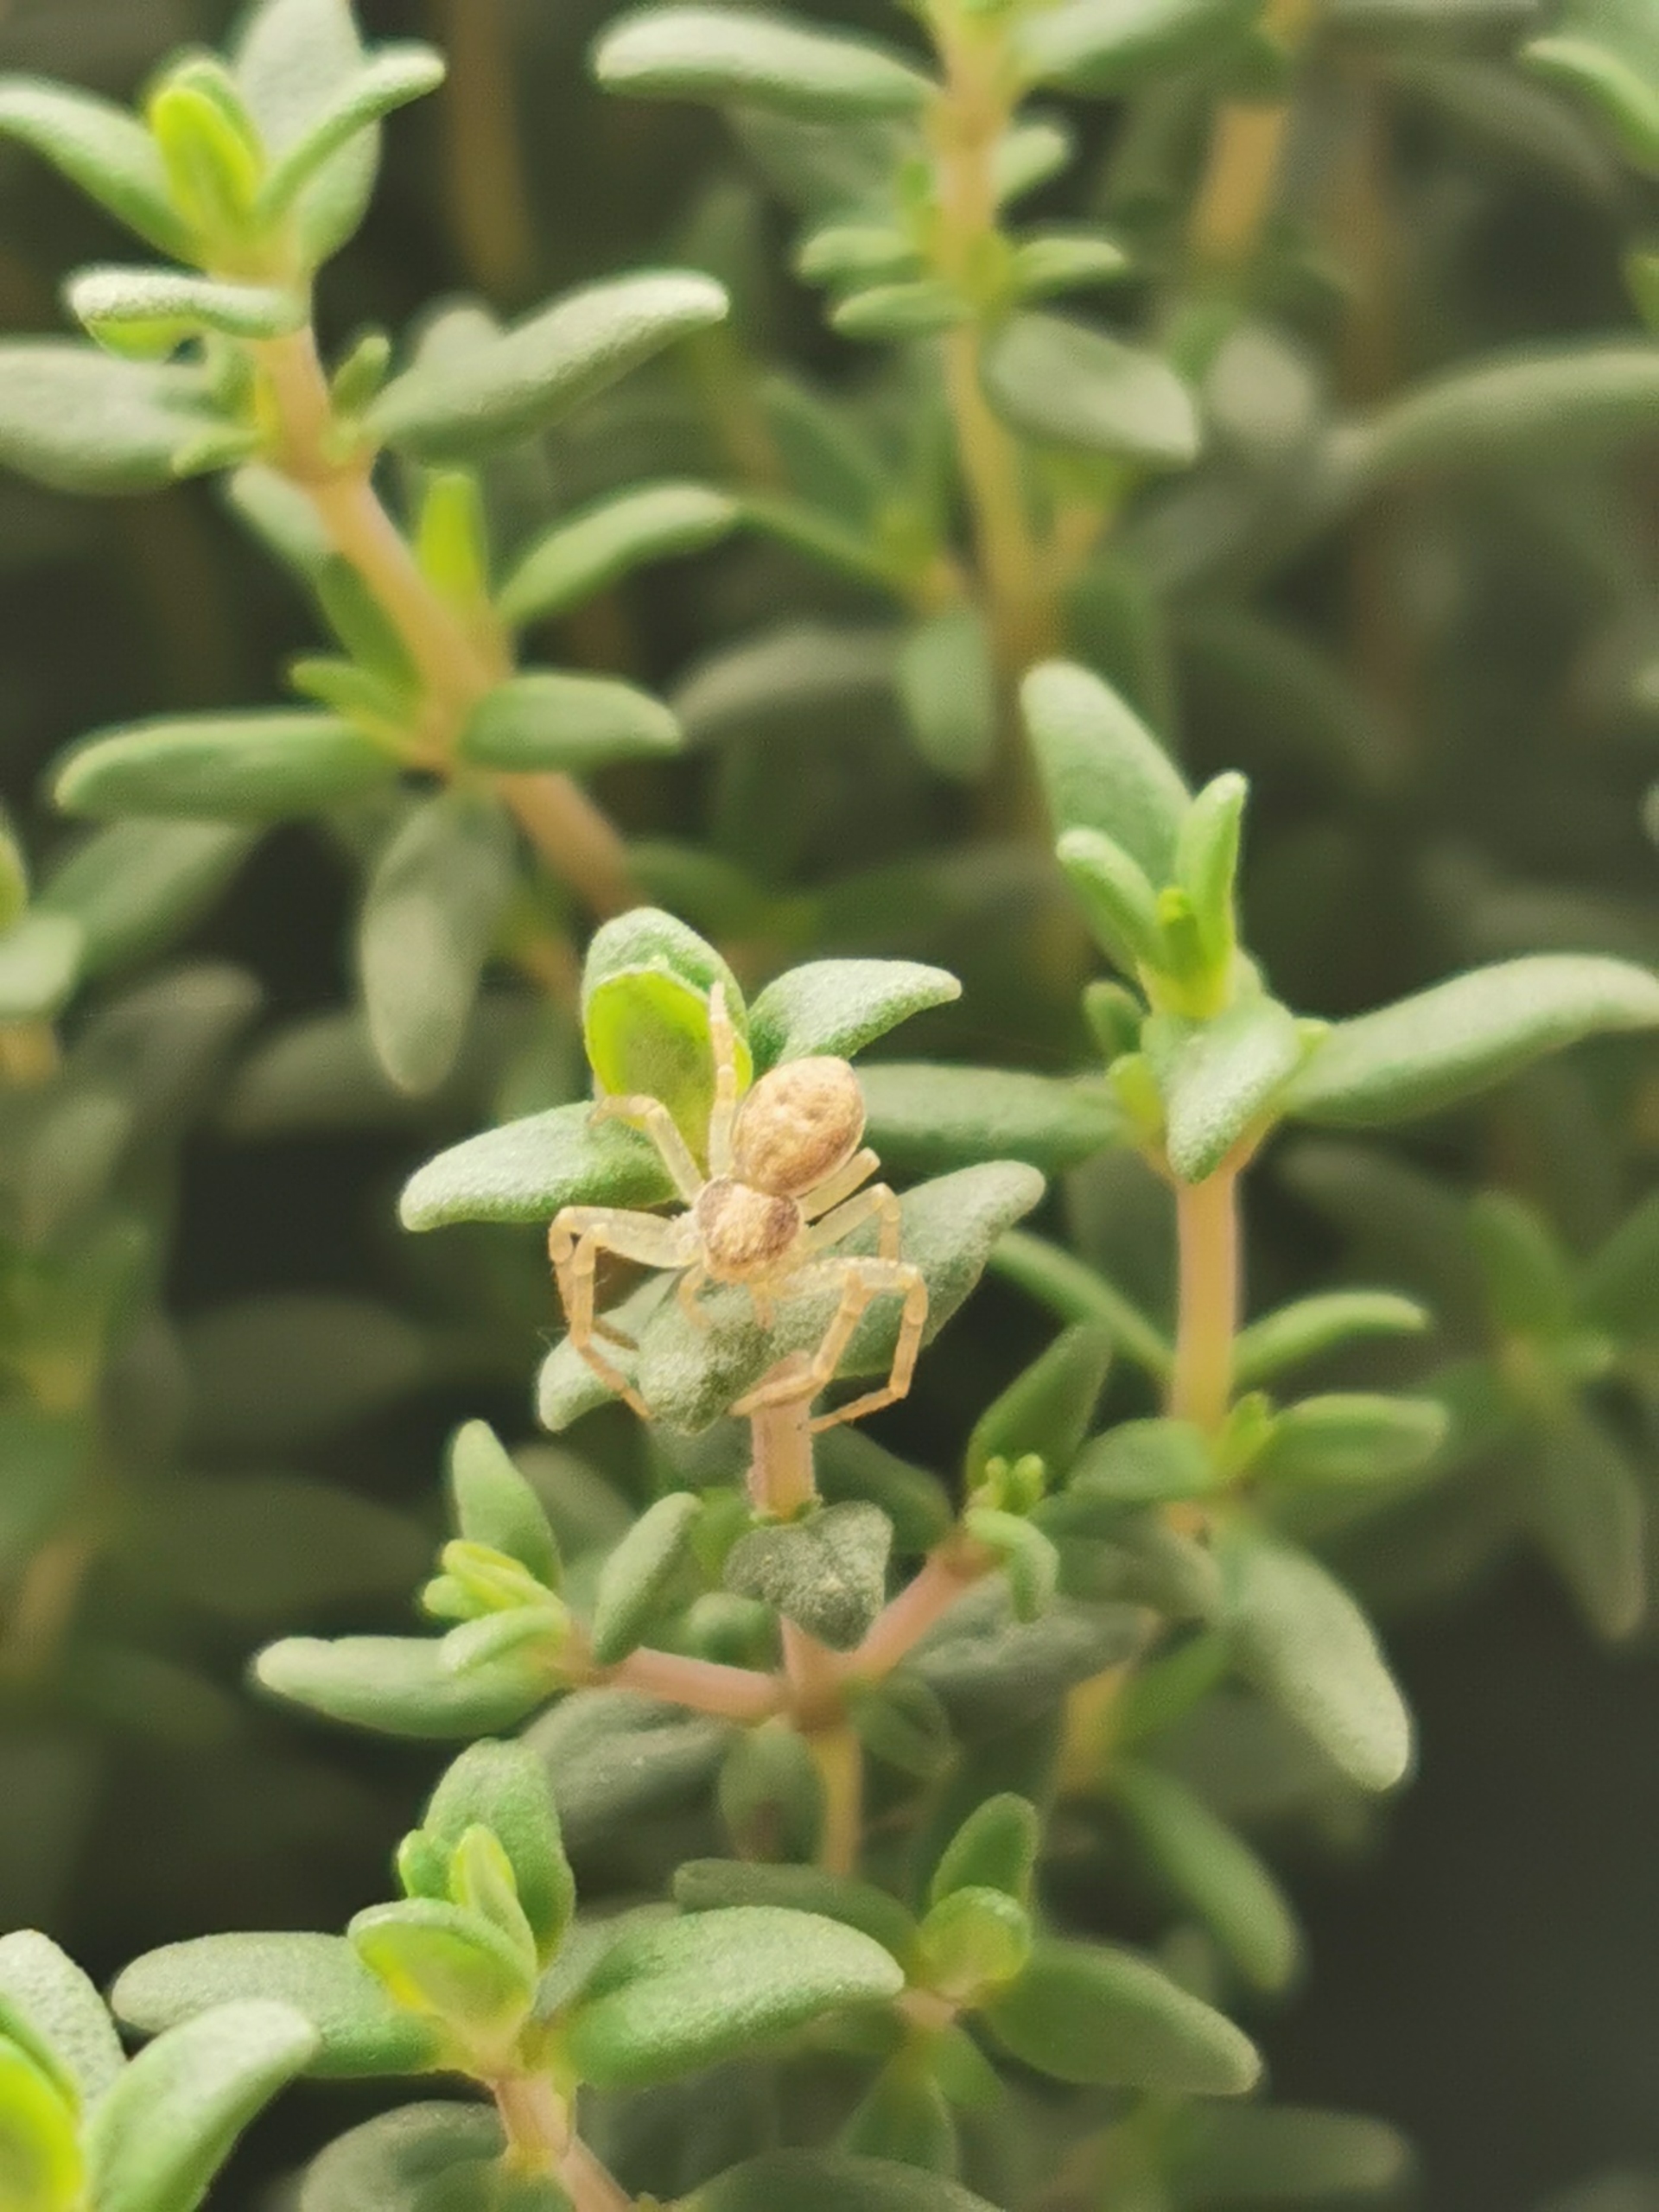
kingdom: Animalia
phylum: Arthropoda
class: Arachnida
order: Araneae
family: Philodromidae
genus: Philodromus
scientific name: Philodromus albidus
